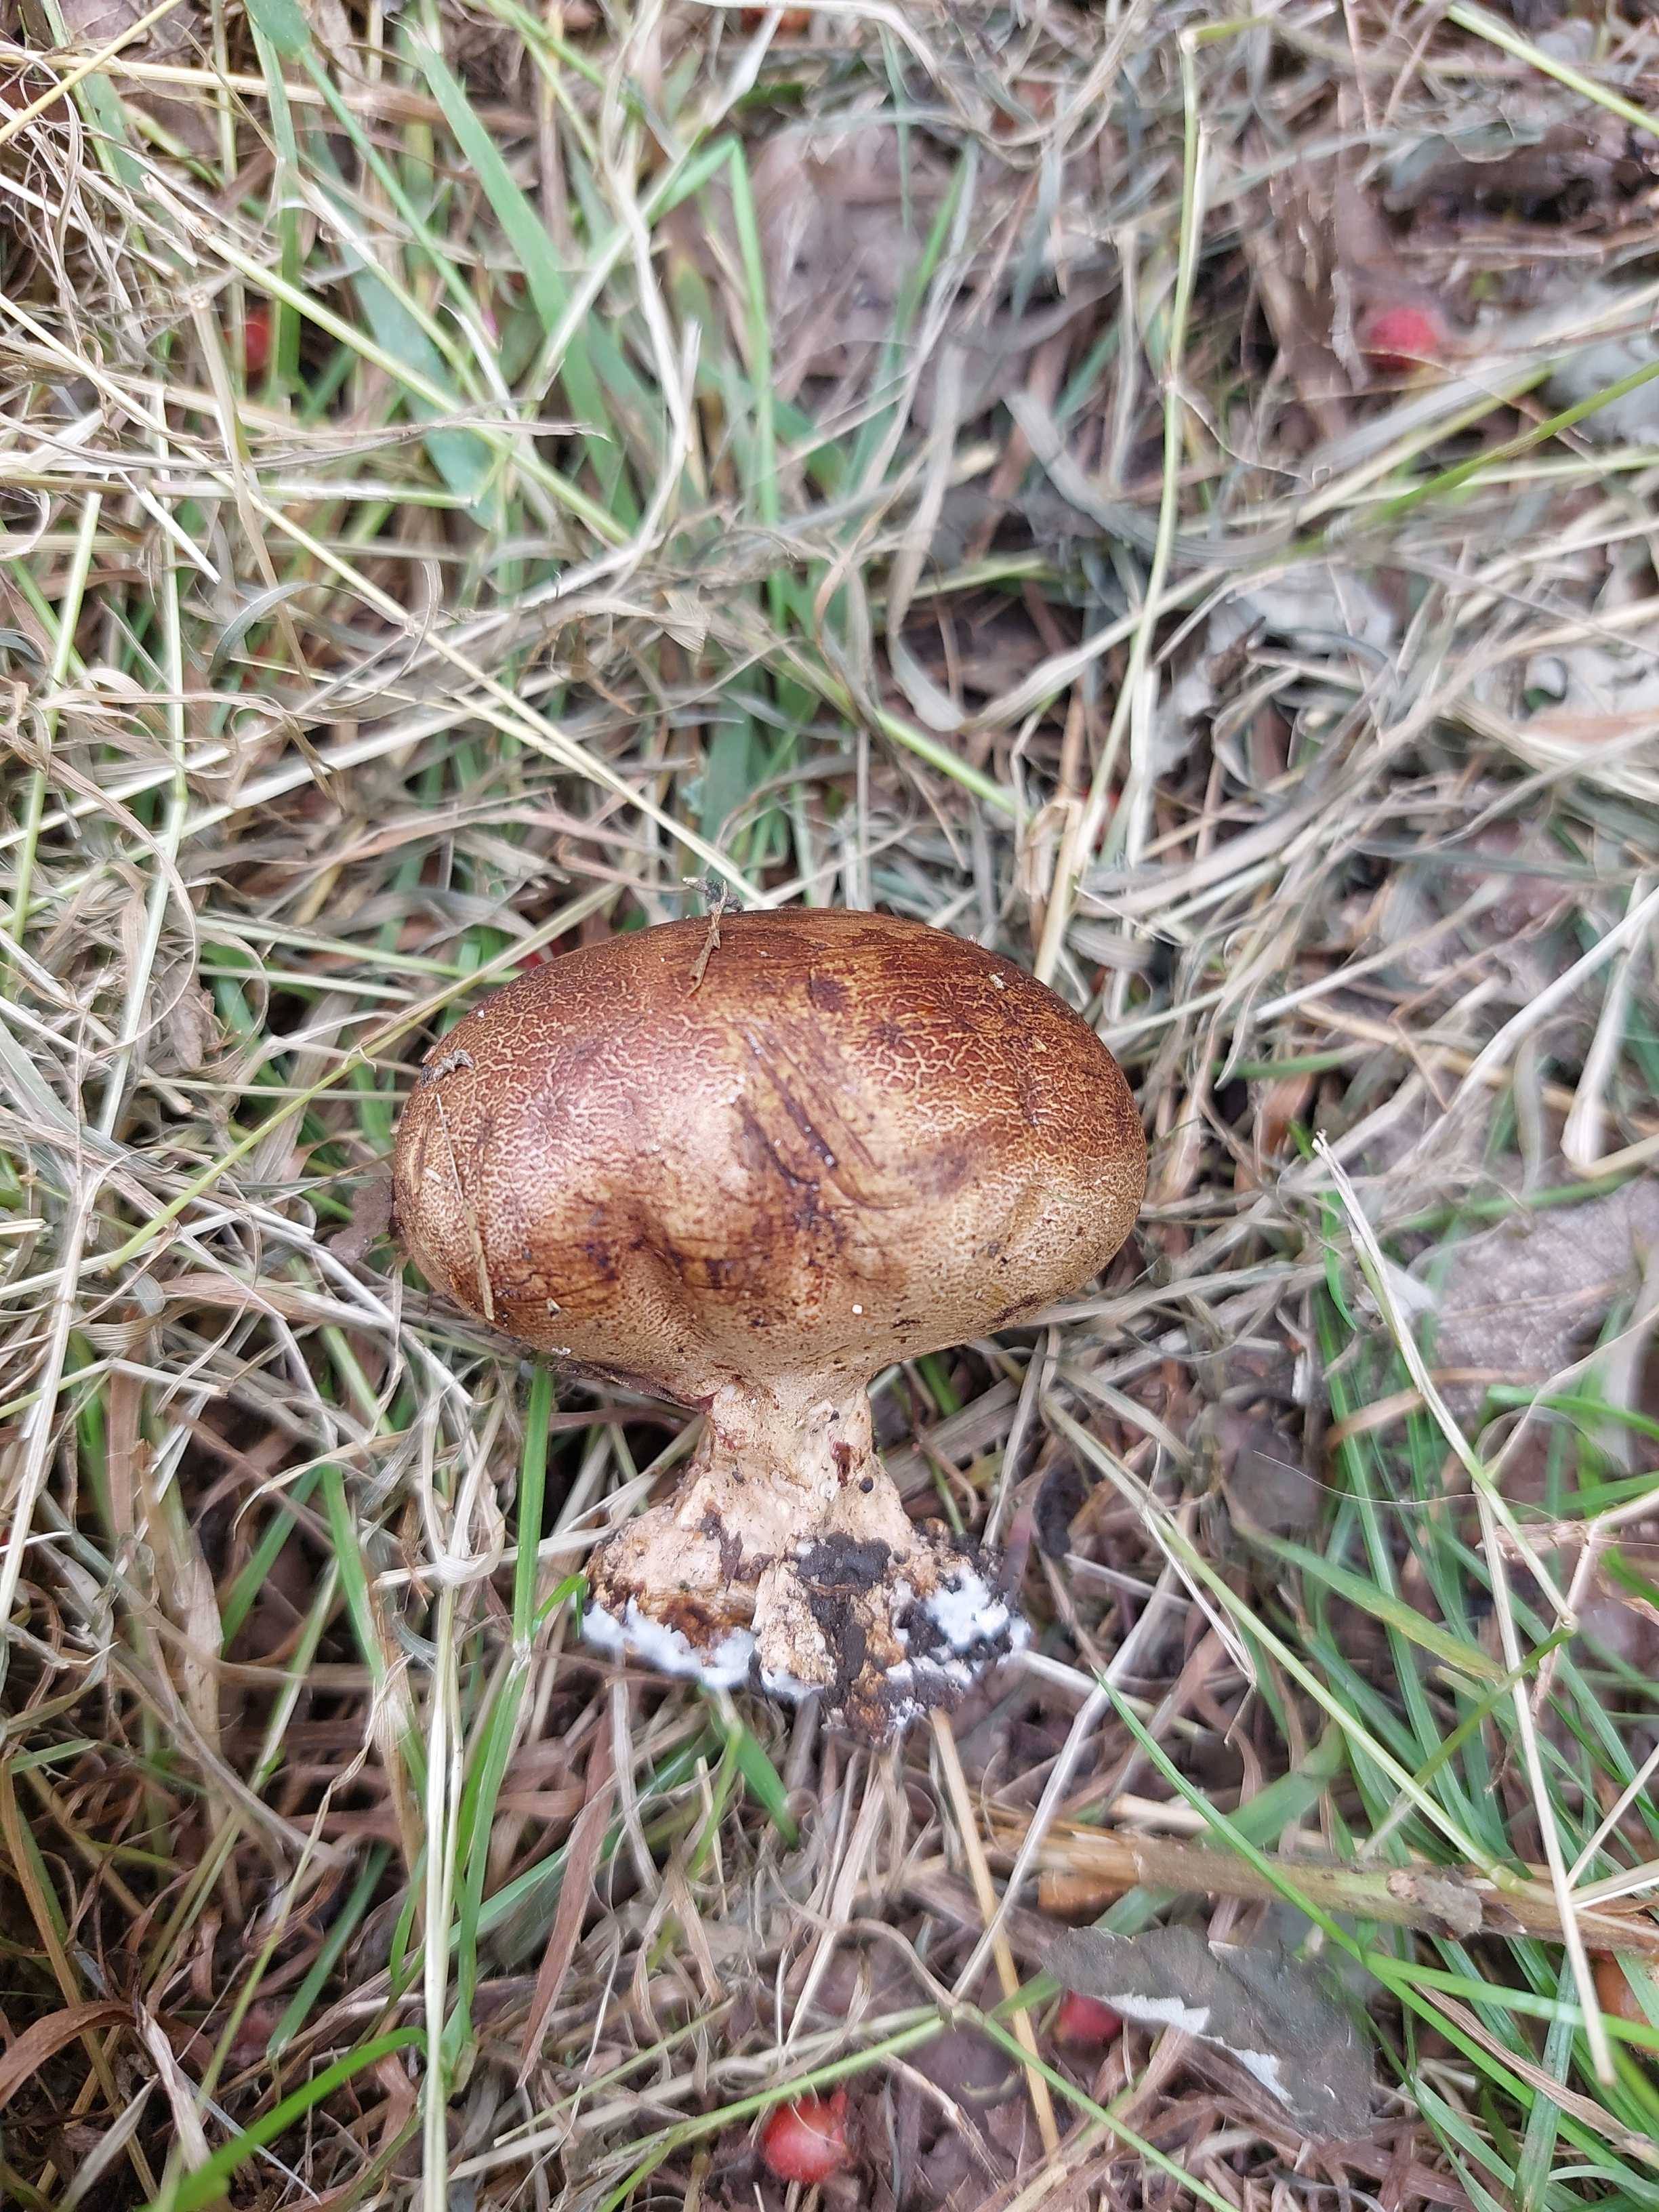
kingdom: Fungi
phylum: Basidiomycota
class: Agaricomycetes
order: Boletales
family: Sclerodermataceae
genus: Scleroderma
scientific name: Scleroderma
